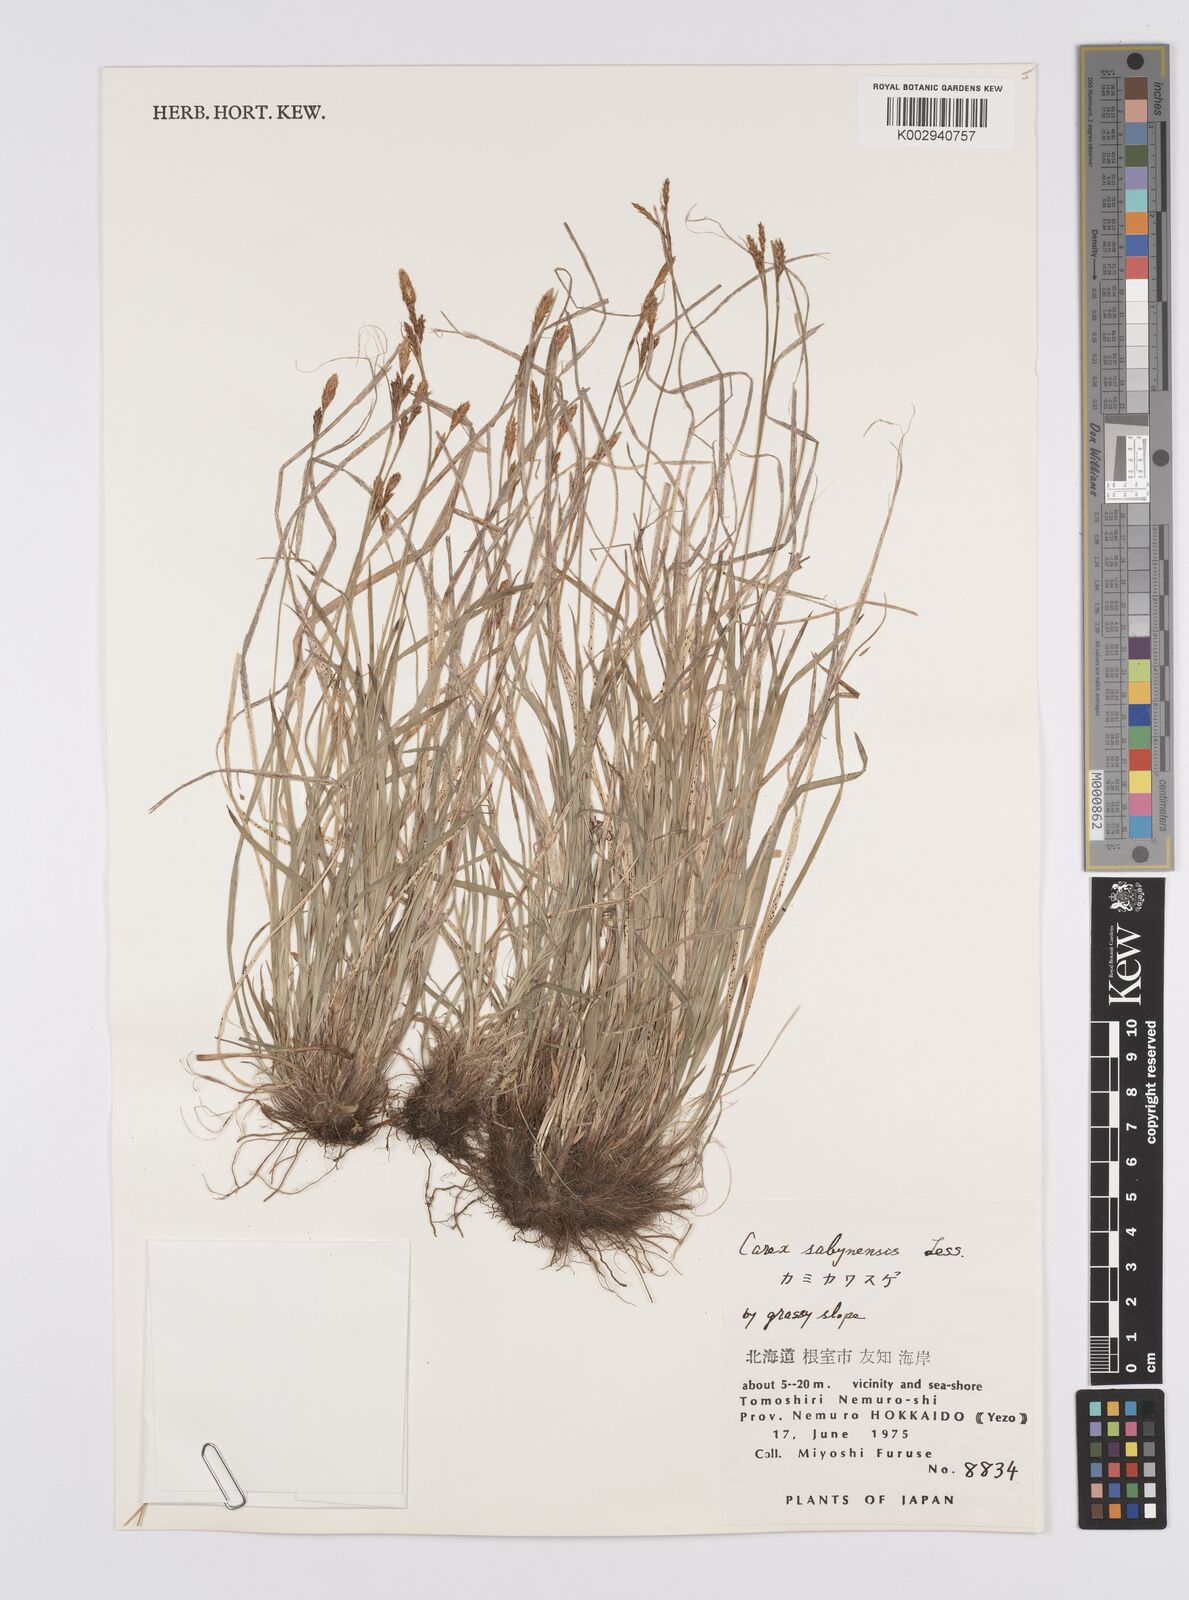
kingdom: Plantae
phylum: Tracheophyta
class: Liliopsida
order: Poales
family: Cyperaceae
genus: Carex
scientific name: Carex umbrosa
